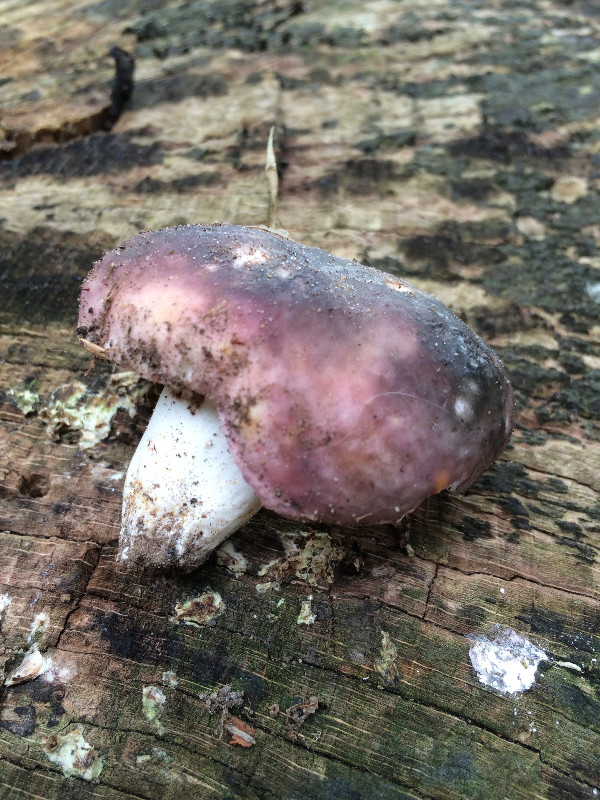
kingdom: Fungi
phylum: Basidiomycota
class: Agaricomycetes
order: Russulales
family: Russulaceae
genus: Russula
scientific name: Russula cyanoxantha
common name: broget skørhat
